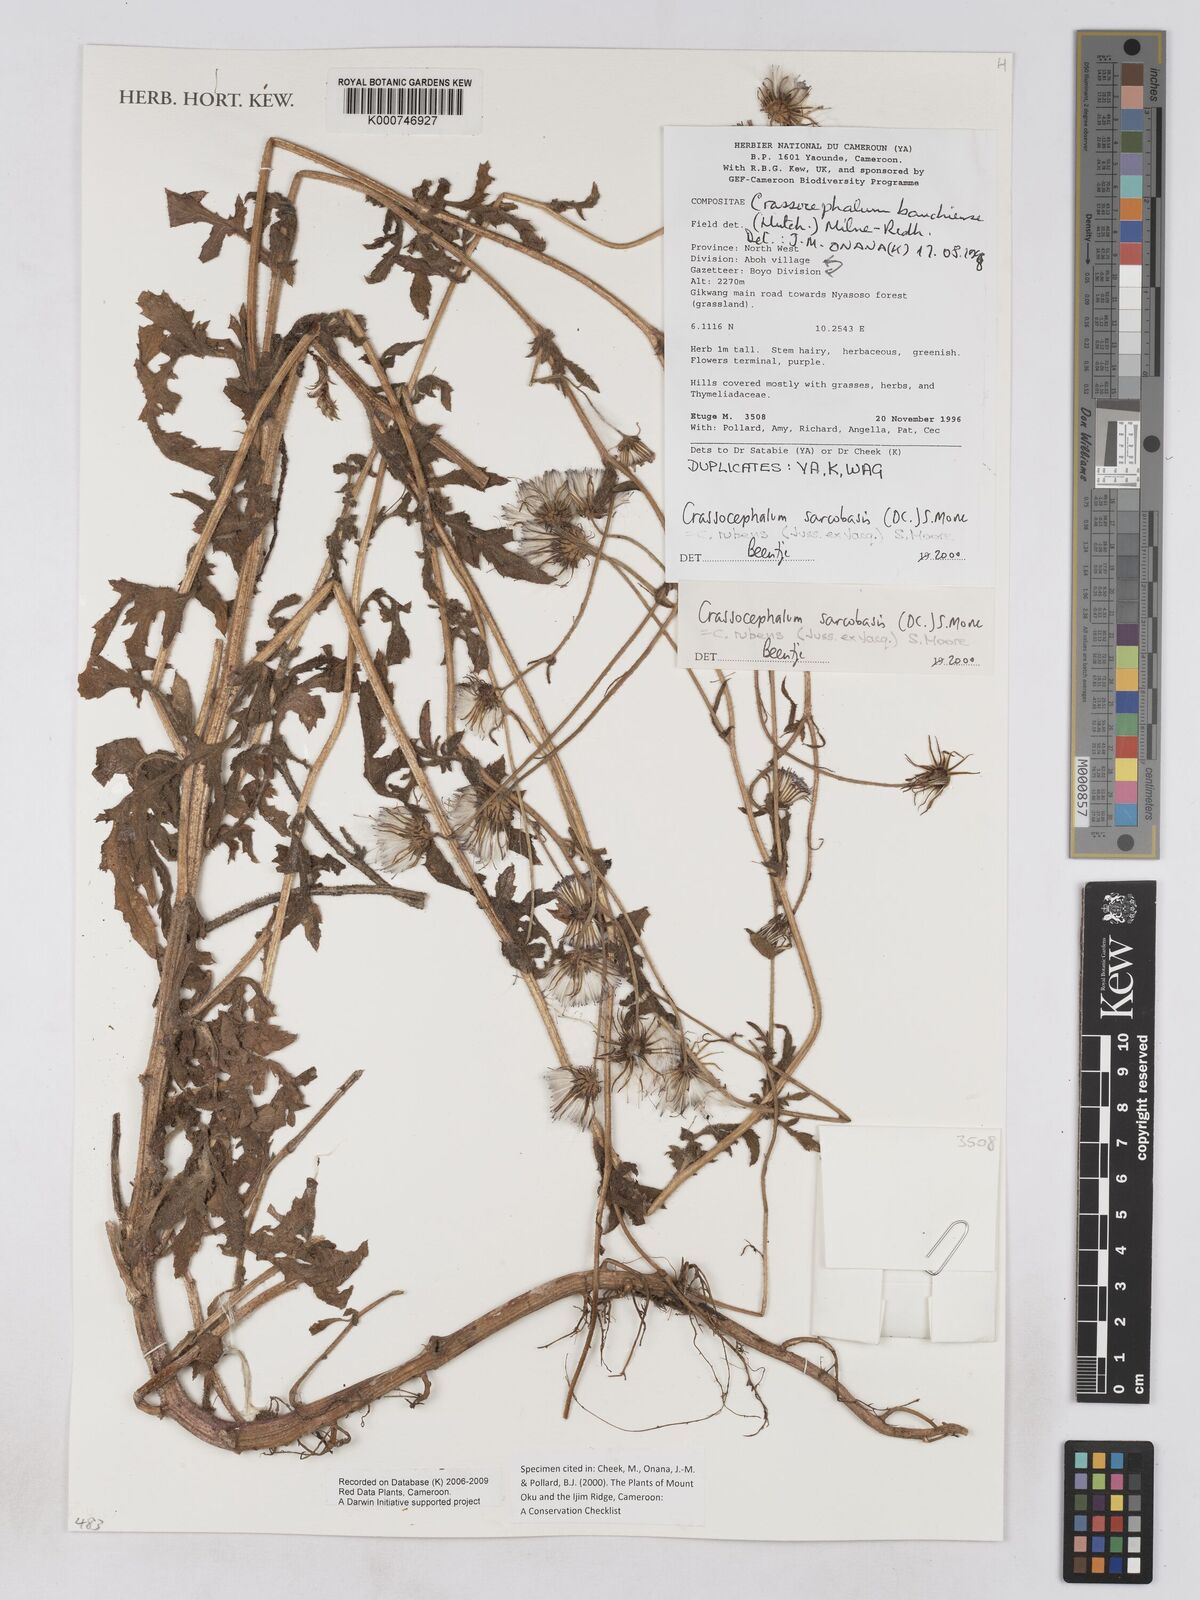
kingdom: Plantae
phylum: Tracheophyta
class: Magnoliopsida
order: Asterales
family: Asteraceae
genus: Crassocephalum
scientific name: Crassocephalum rubens
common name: Yoruban bologi
